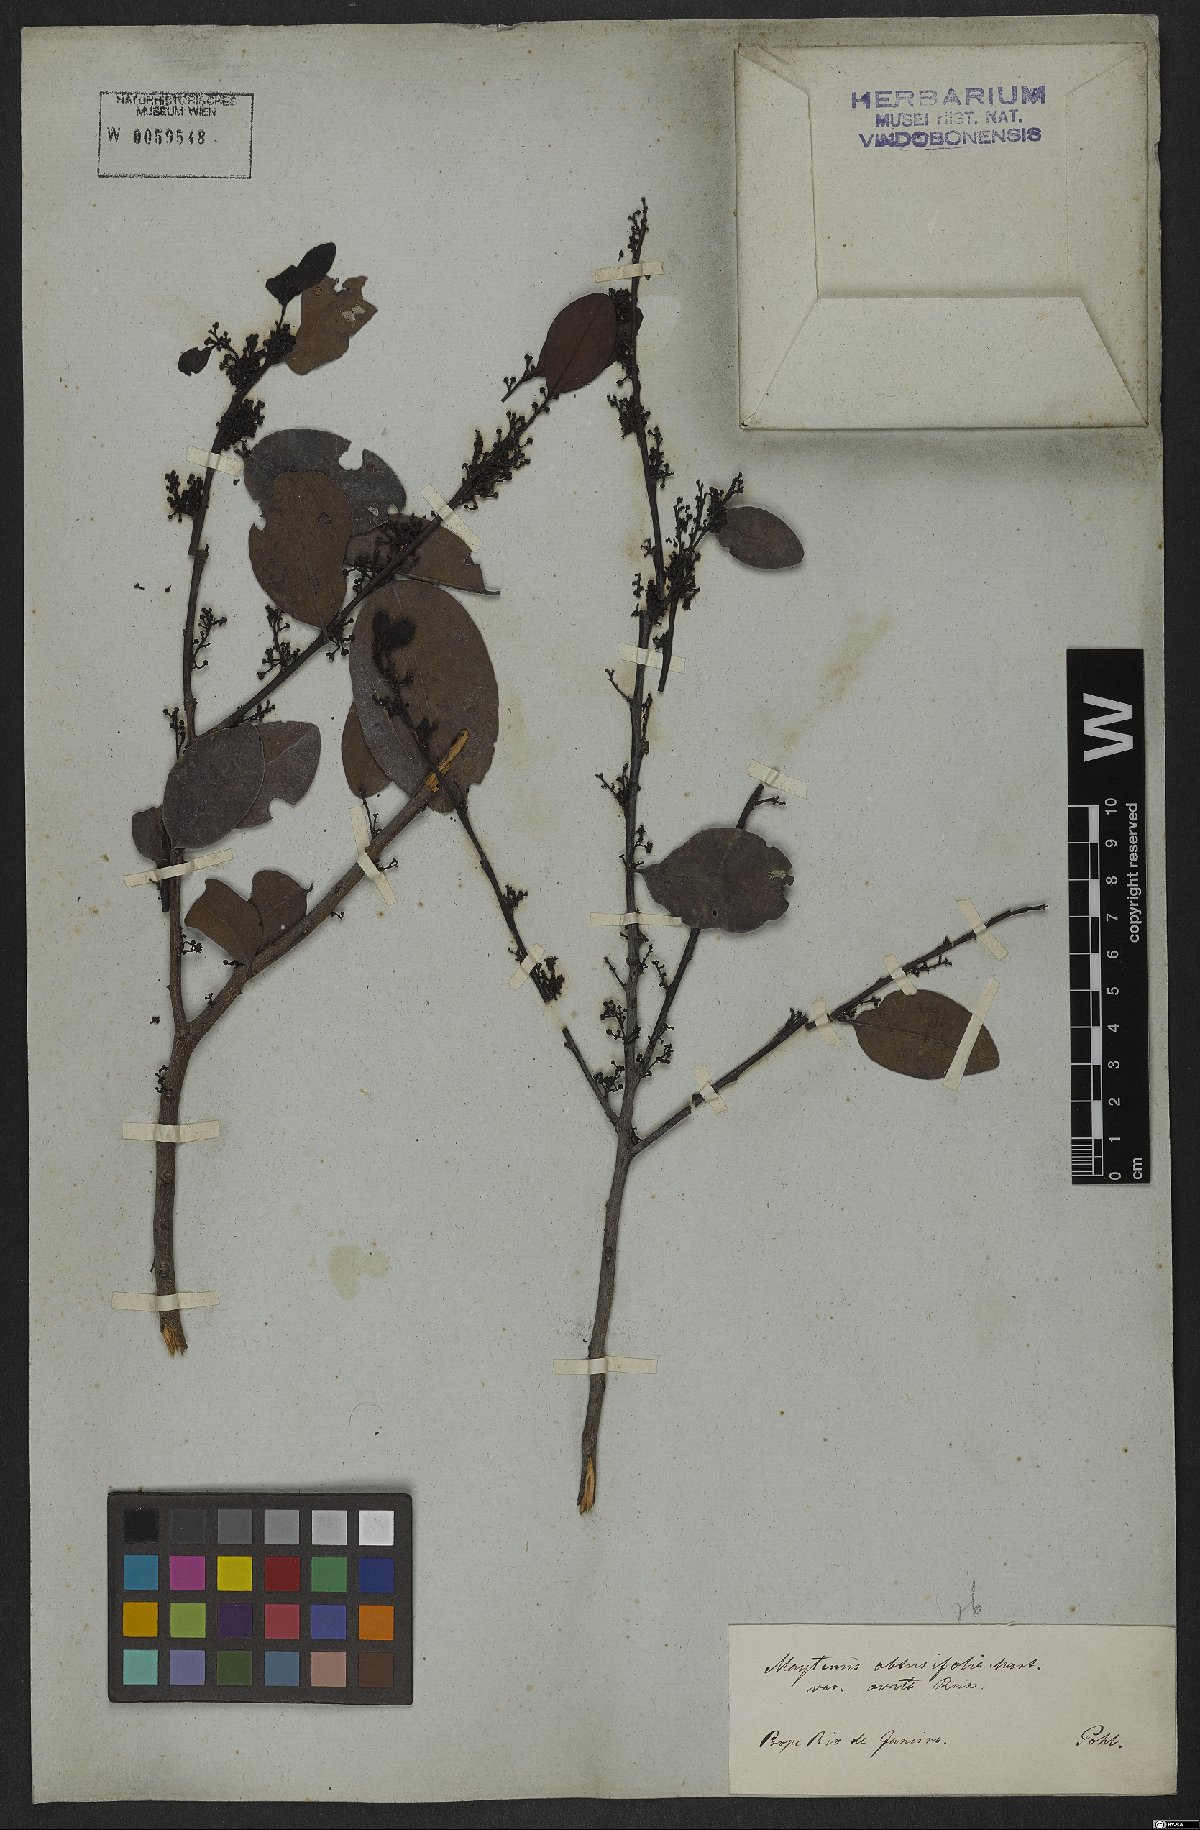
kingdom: Plantae
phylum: Tracheophyta
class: Magnoliopsida
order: Celastrales
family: Celastraceae
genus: Monteverdia
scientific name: Monteverdia obtusifolia
